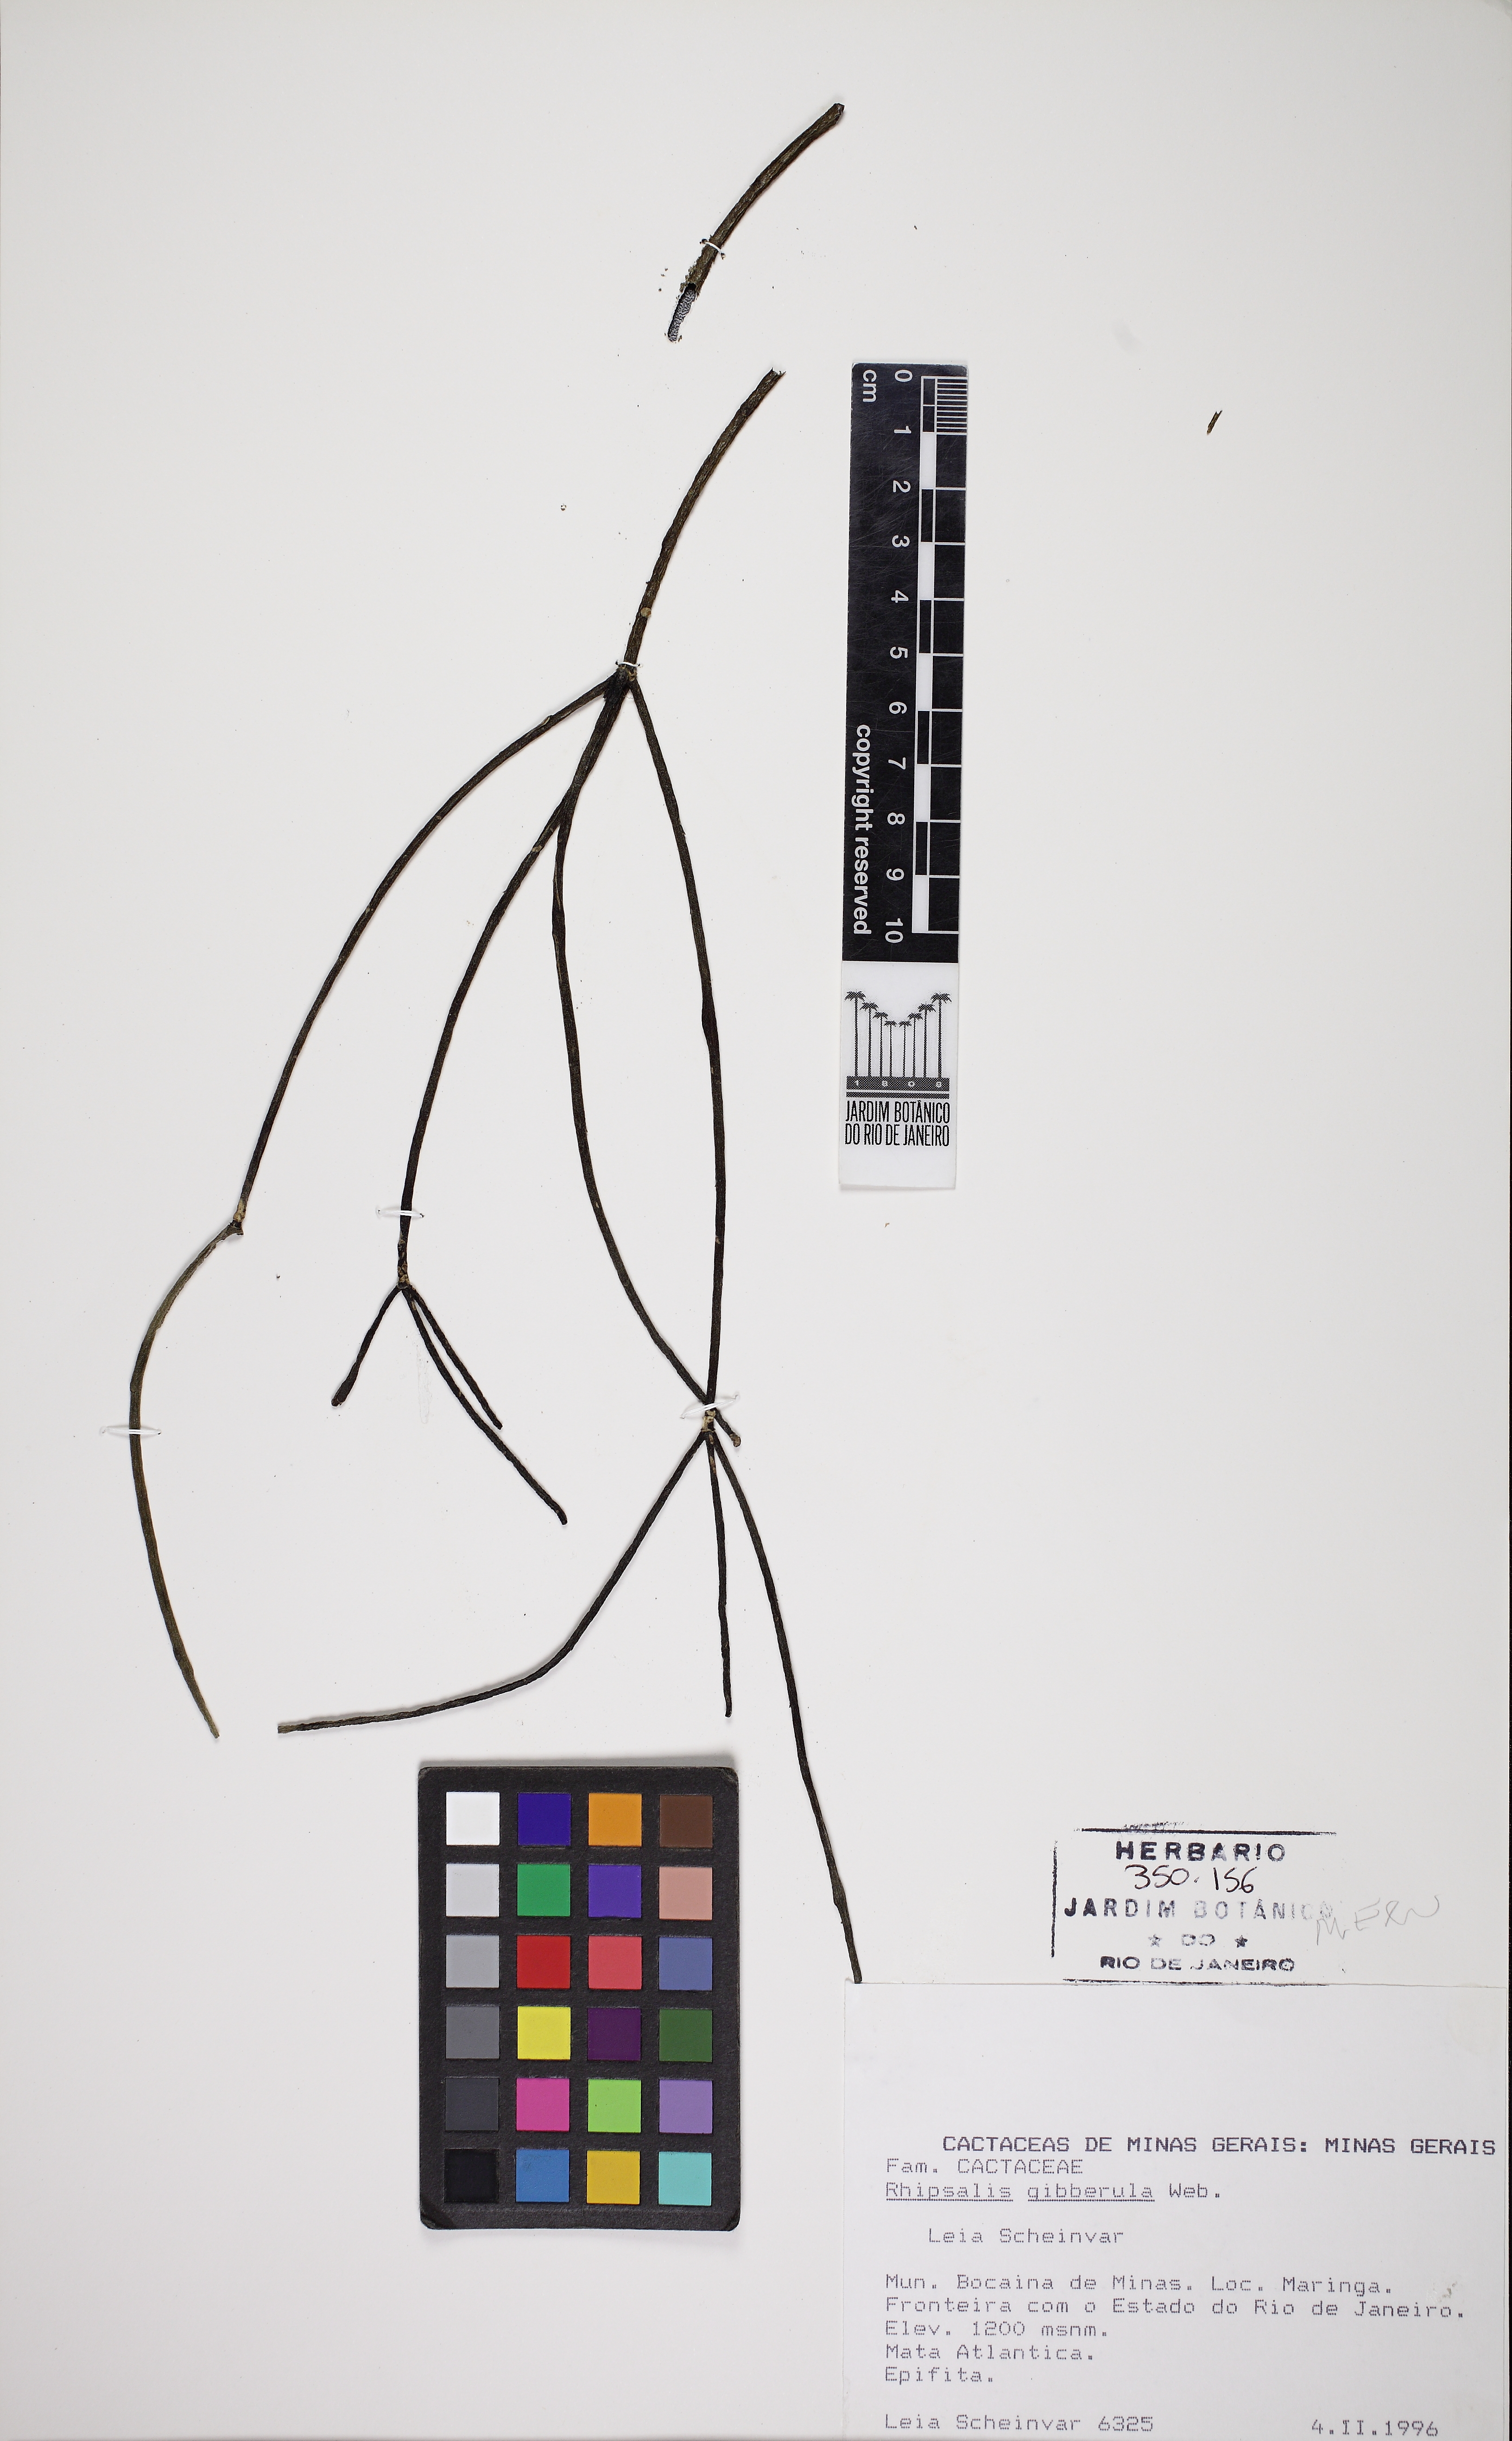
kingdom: Plantae
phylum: Tracheophyta
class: Magnoliopsida
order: Caryophyllales
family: Cactaceae
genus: Rhipsalis
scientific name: Rhipsalis floccosa
